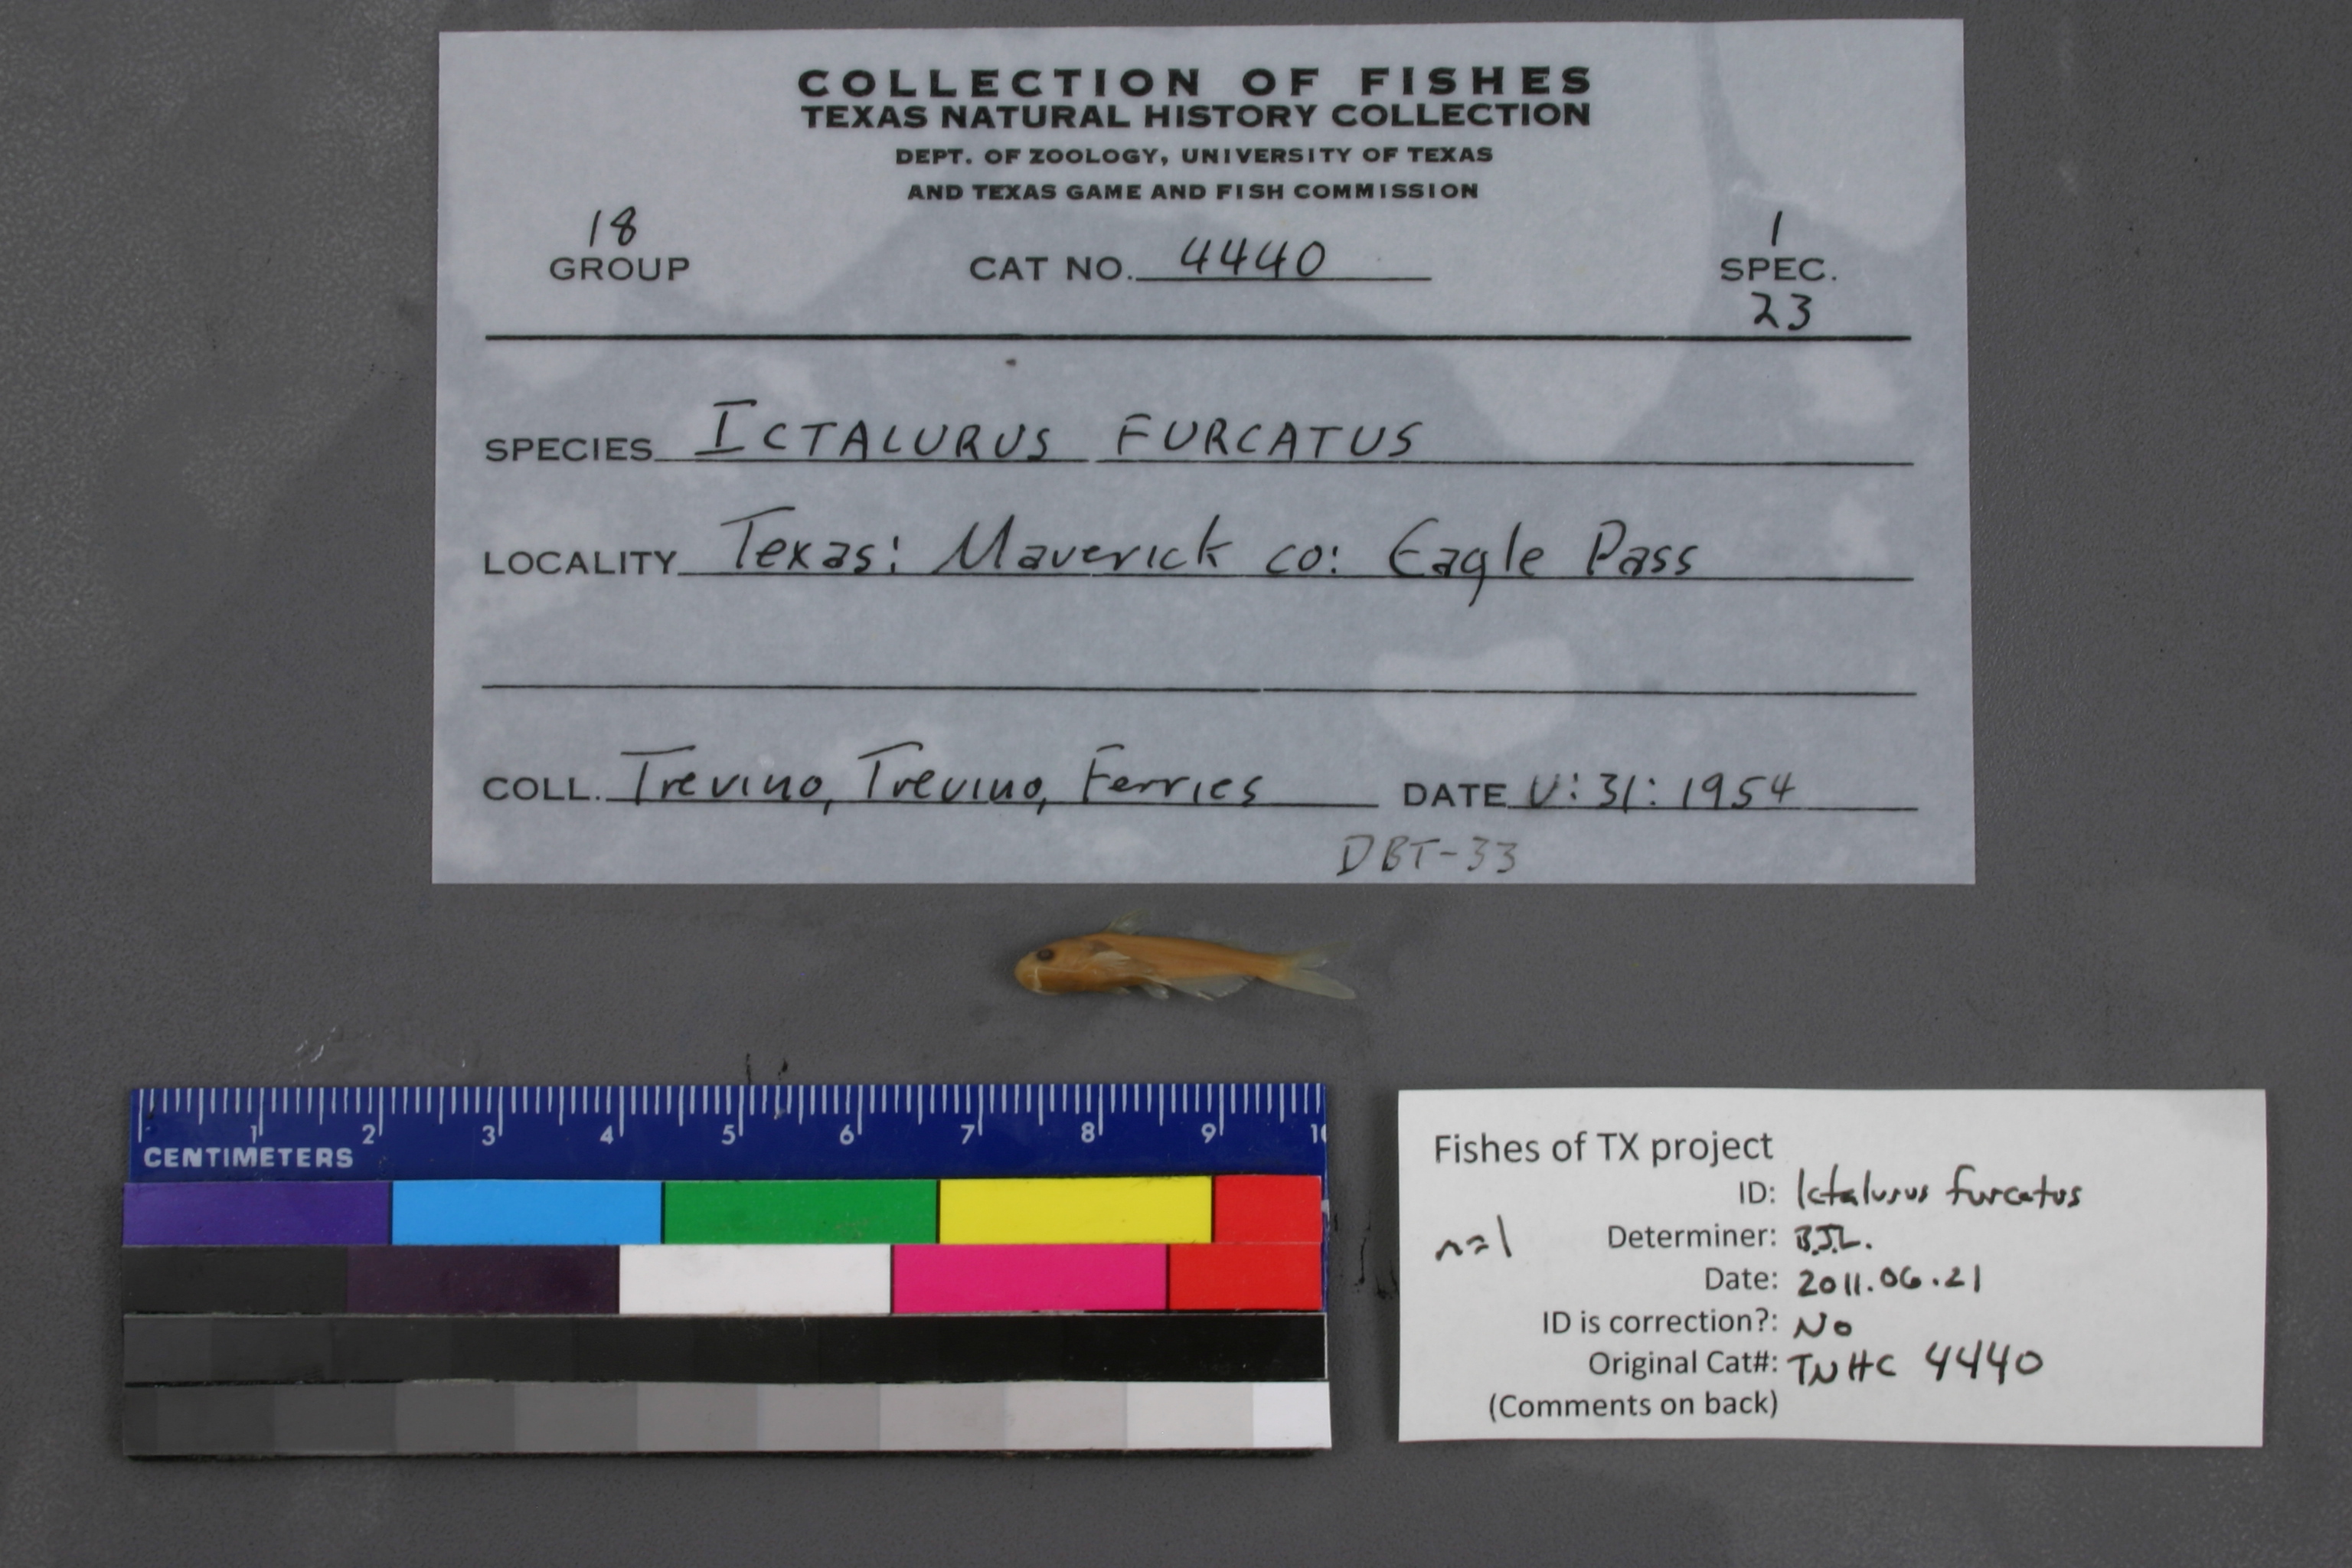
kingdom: Animalia
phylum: Chordata
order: Siluriformes
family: Ictaluridae
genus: Ictalurus
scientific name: Ictalurus furcatus
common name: Blue catfish
